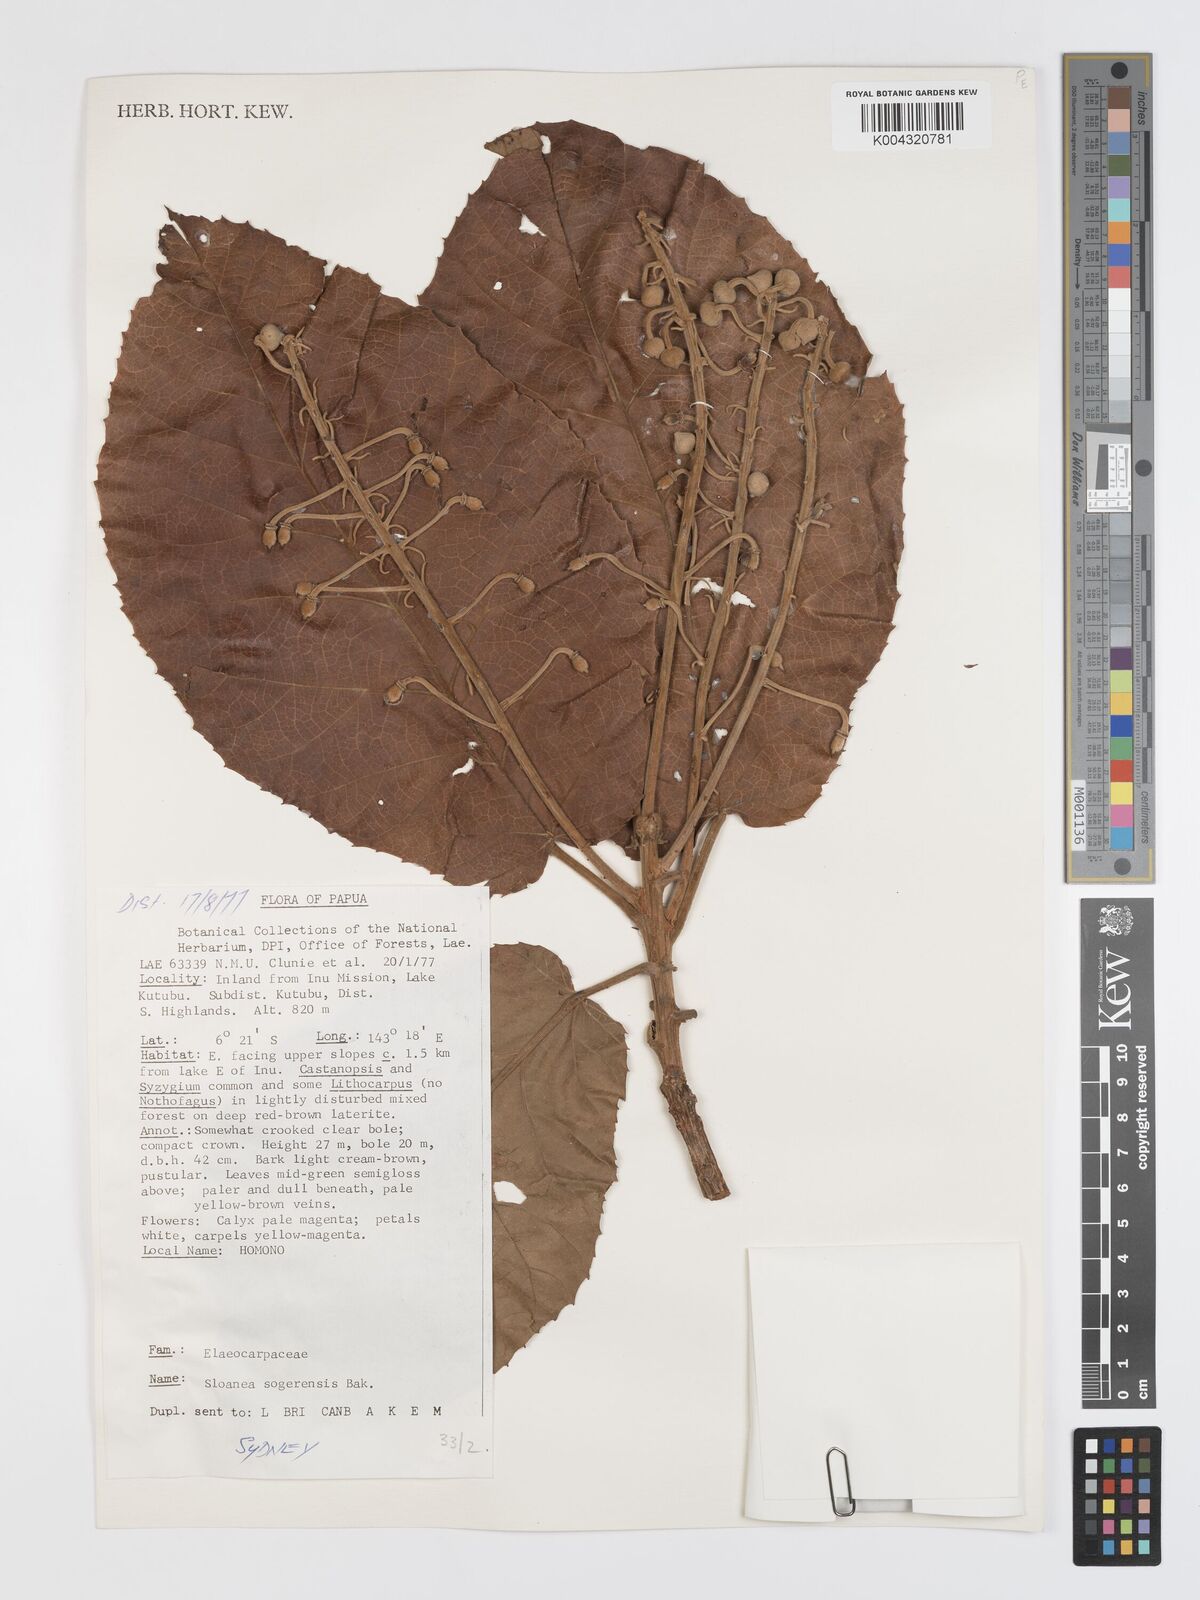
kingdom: Plantae
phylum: Tracheophyta
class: Magnoliopsida
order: Oxalidales
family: Elaeocarpaceae
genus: Sloanea
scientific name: Sloanea sogerensis
